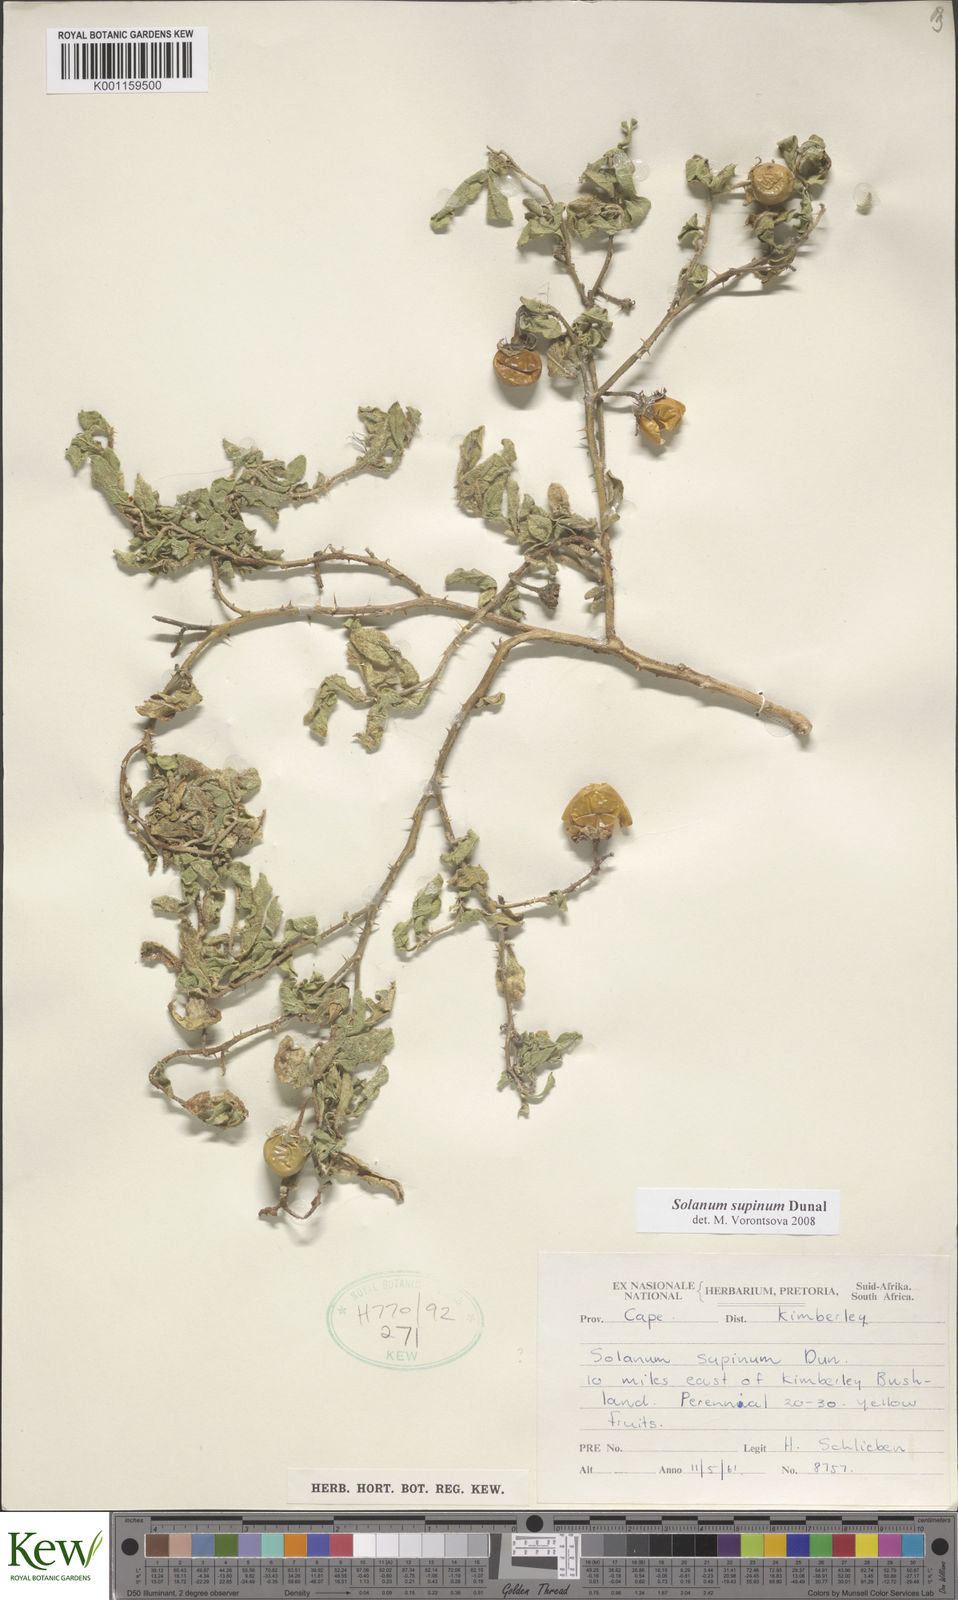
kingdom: Plantae
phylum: Tracheophyta
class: Magnoliopsida
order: Solanales
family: Solanaceae
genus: Solanum
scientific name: Solanum supinum
